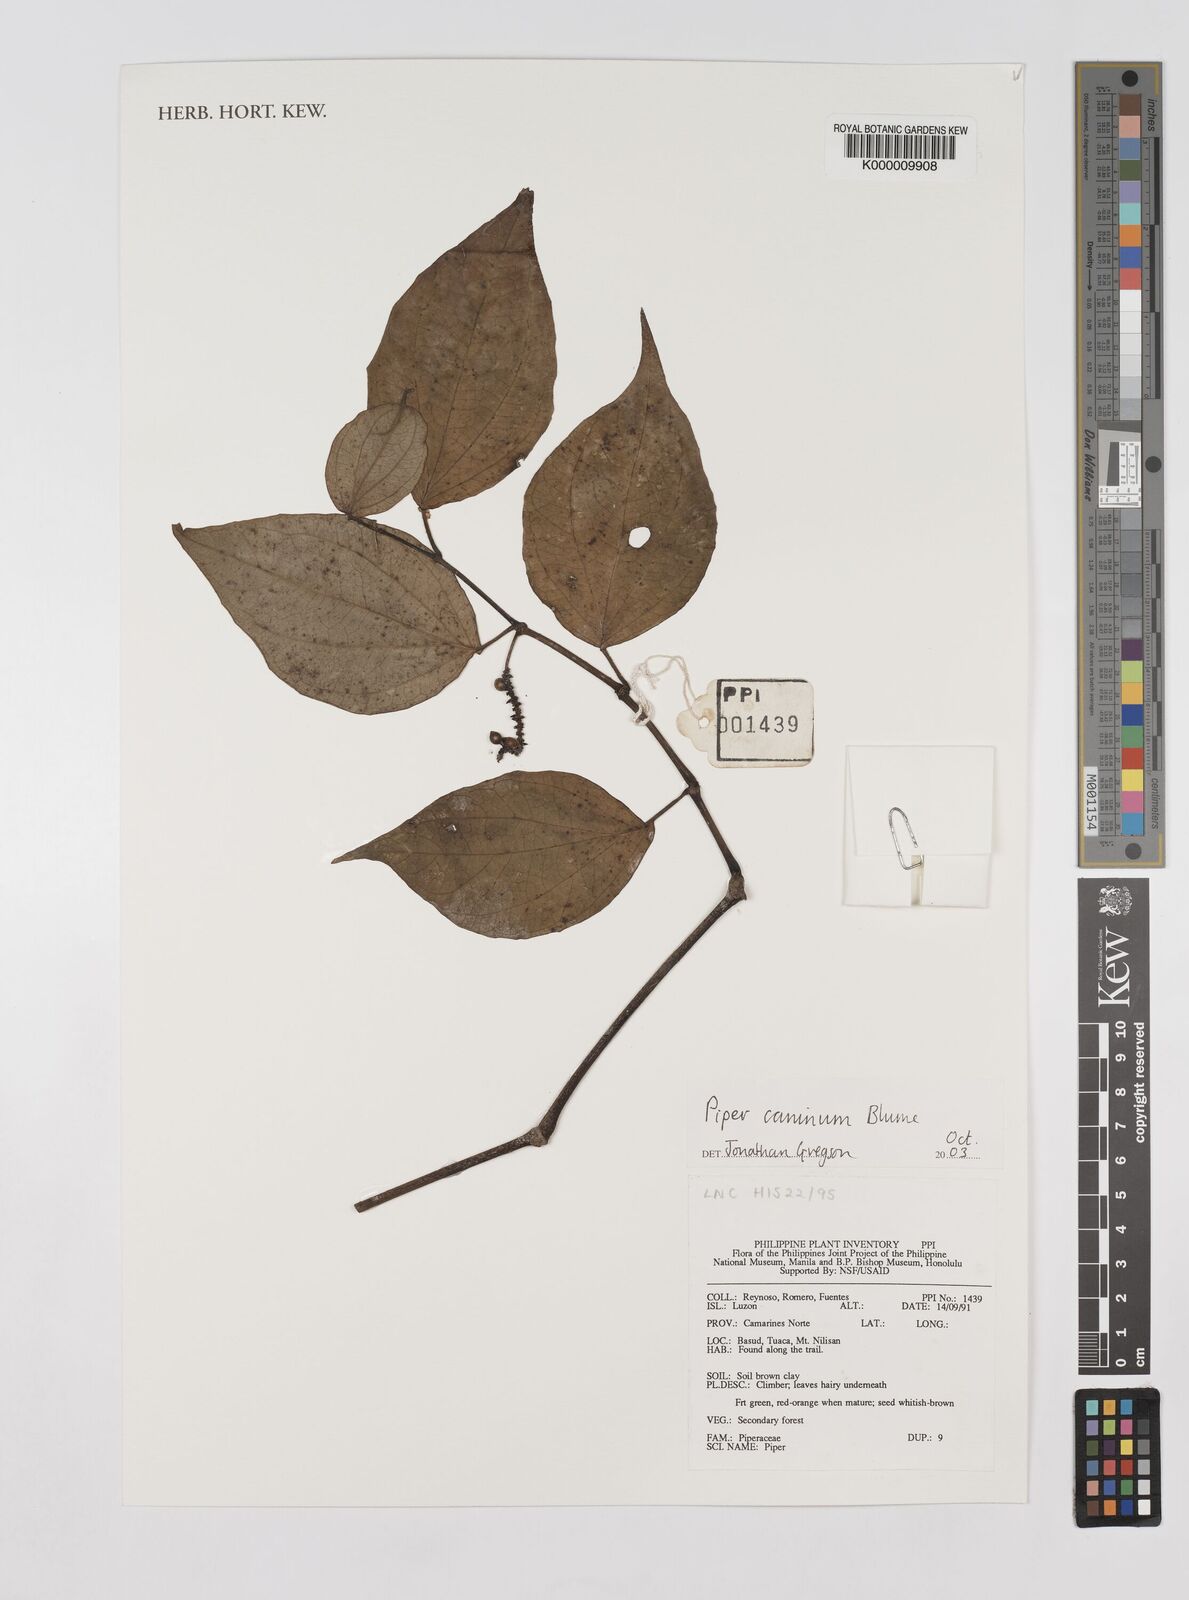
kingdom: Plantae
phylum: Tracheophyta
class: Magnoliopsida
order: Piperales
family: Piperaceae
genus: Piper
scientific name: Piper lanatum
